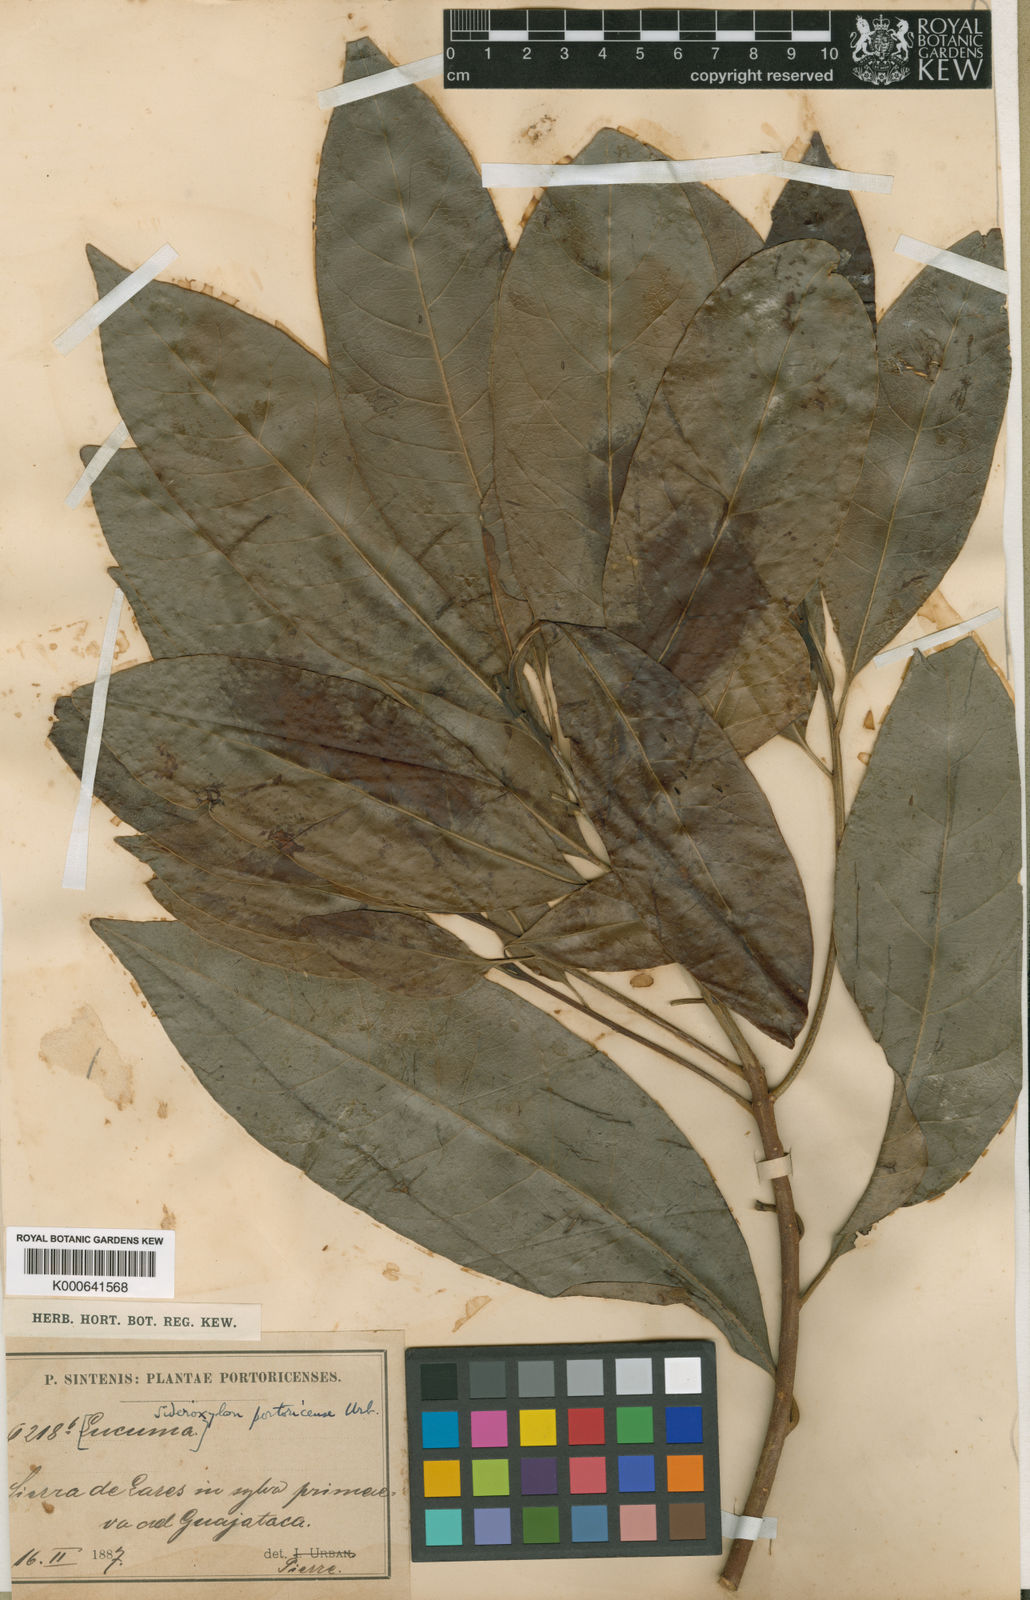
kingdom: Plantae
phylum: Tracheophyta
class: Magnoliopsida
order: Ericales
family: Sapotaceae
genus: Sideroxylon
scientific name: Sideroxylon portoricense
